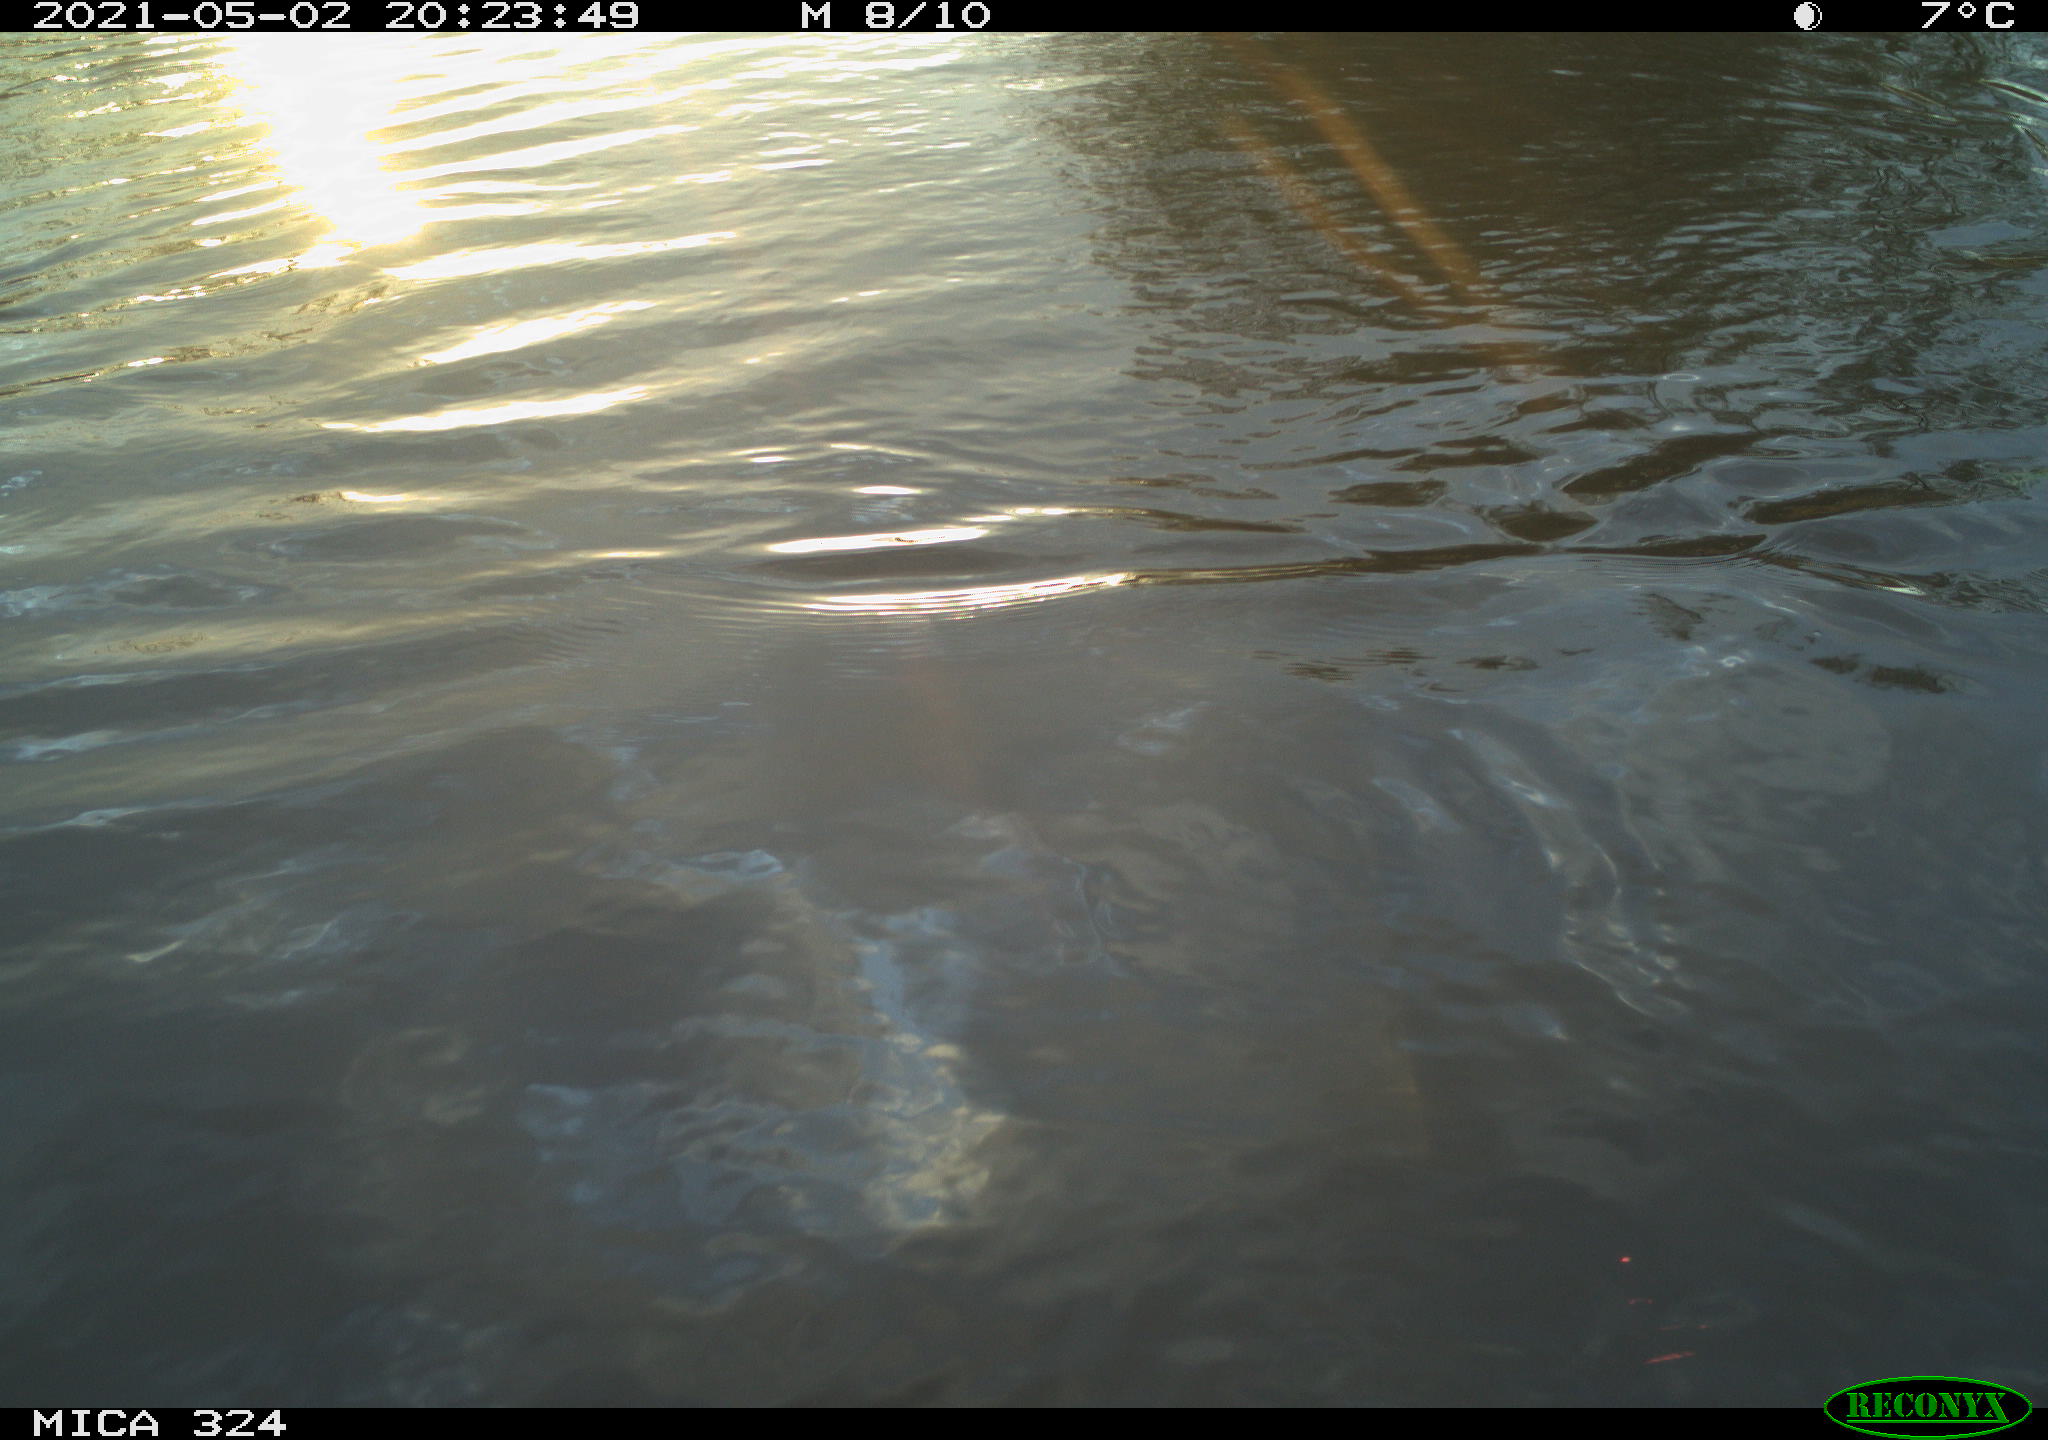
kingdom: Animalia
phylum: Chordata
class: Aves
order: Gruiformes
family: Rallidae
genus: Gallinula
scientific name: Gallinula chloropus
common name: Common moorhen
